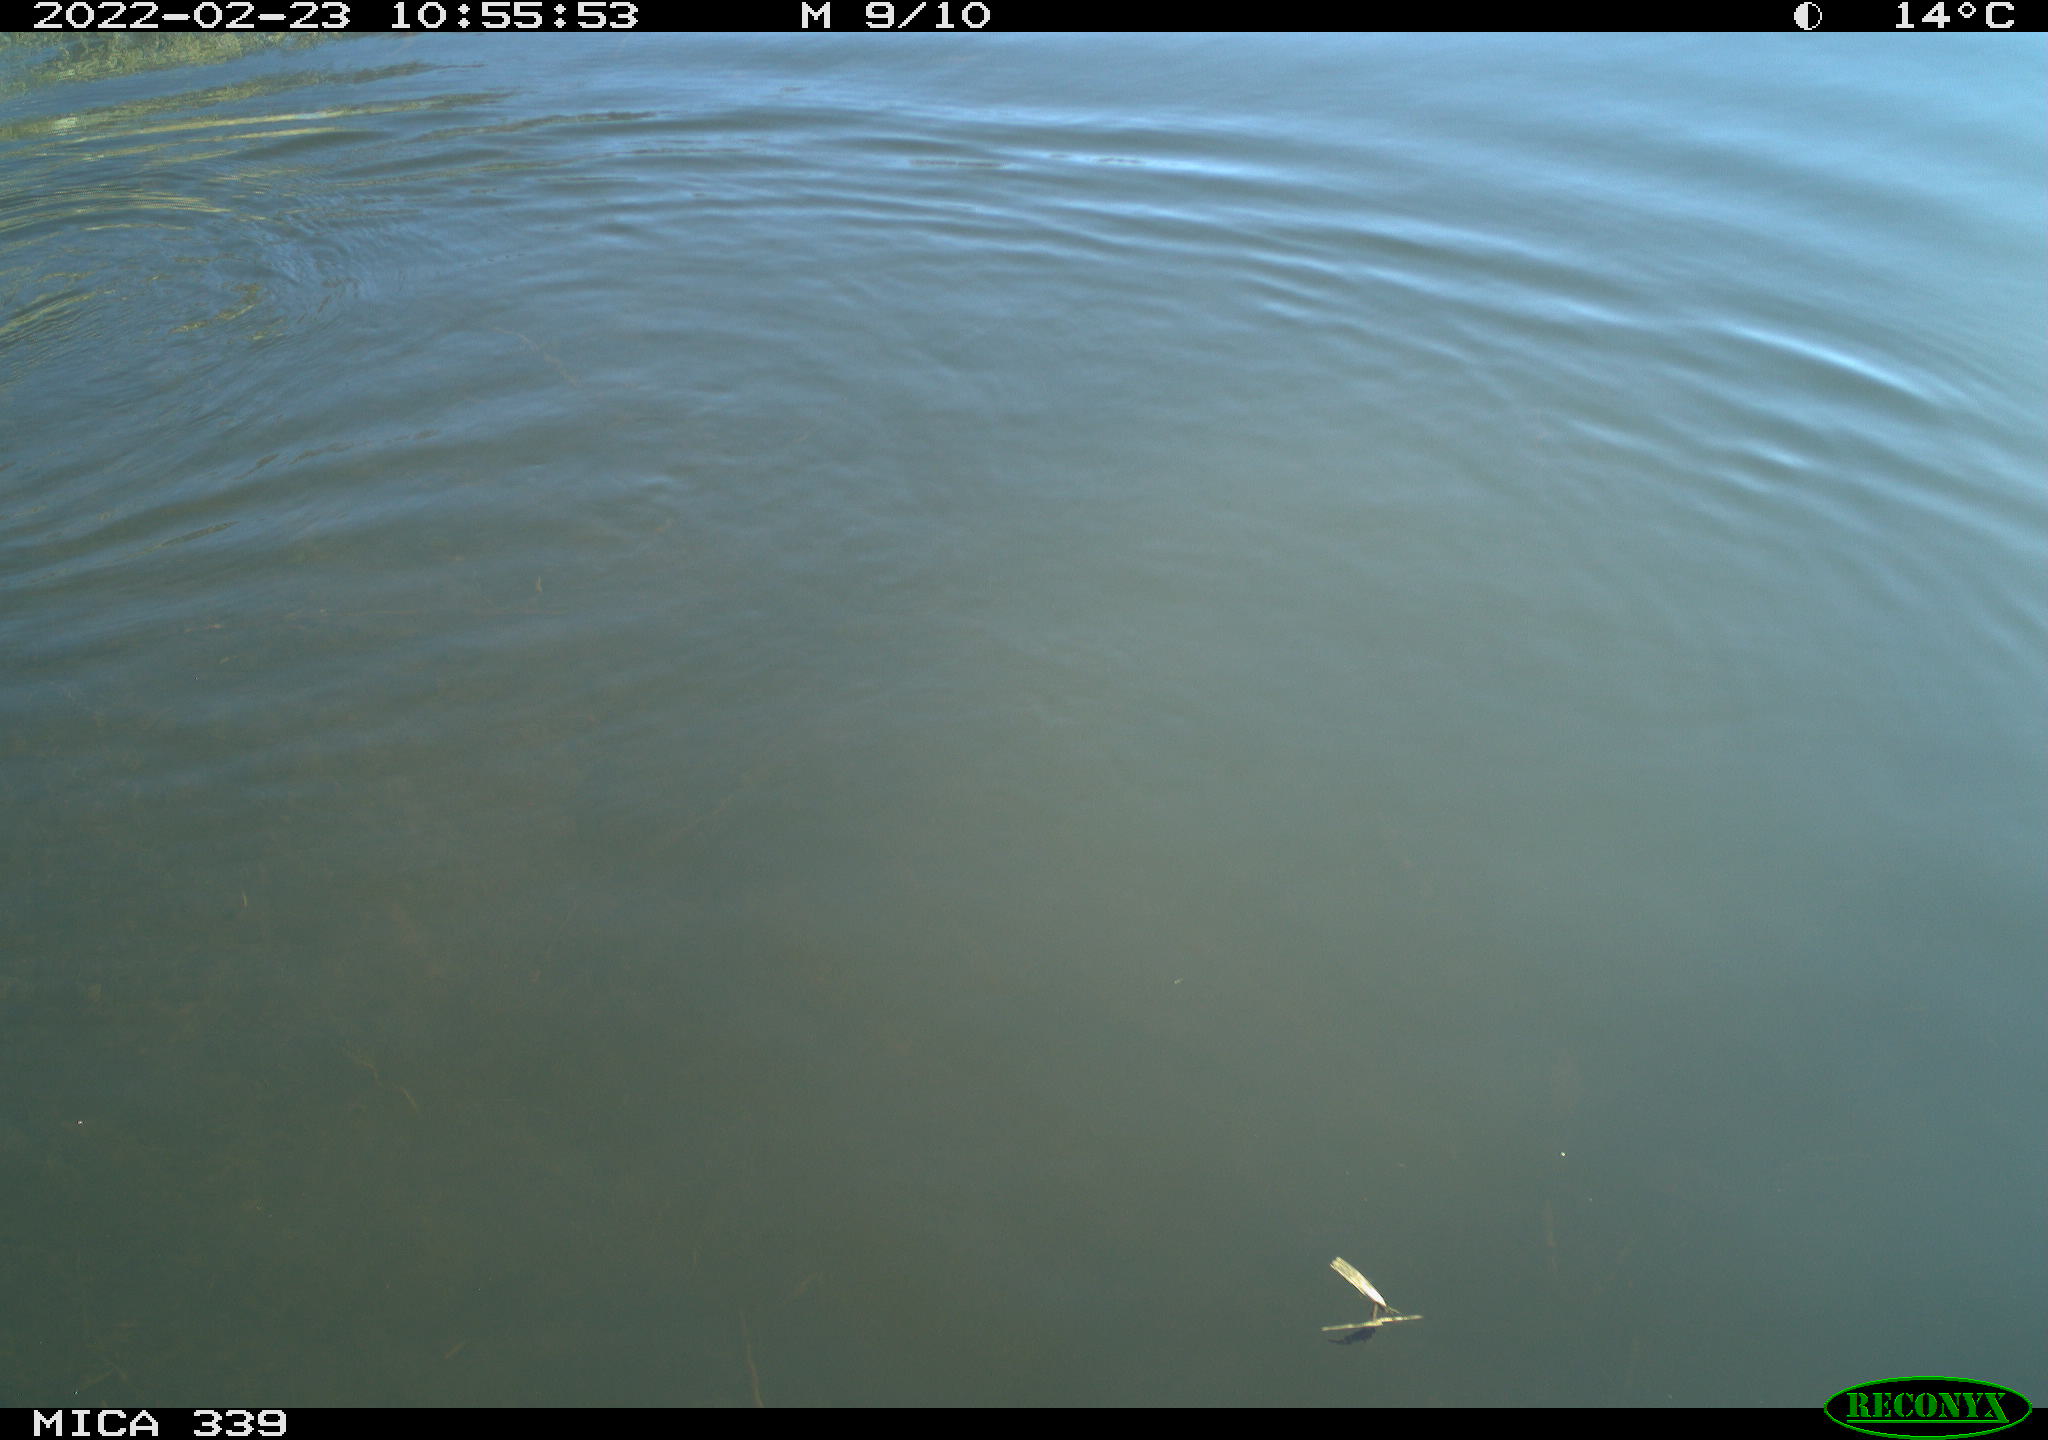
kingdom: Animalia
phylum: Chordata
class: Aves
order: Suliformes
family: Phalacrocoracidae
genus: Phalacrocorax
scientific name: Phalacrocorax carbo
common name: Great cormorant
